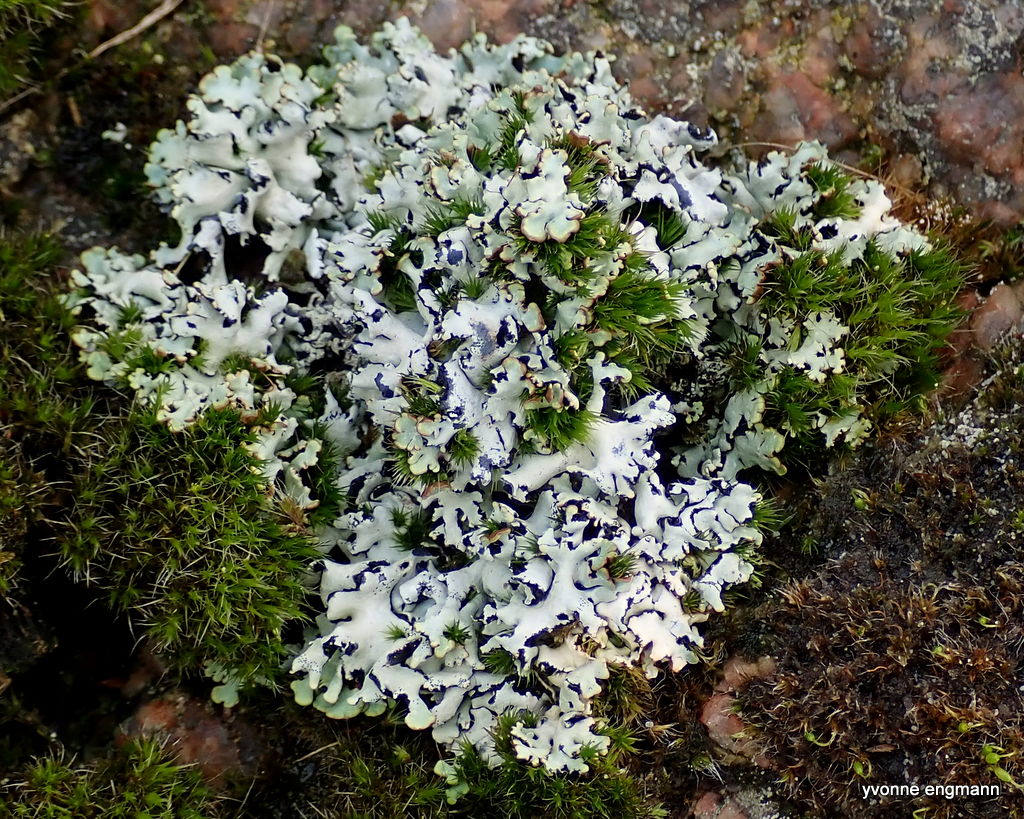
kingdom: Fungi
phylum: Ascomycota
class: Lecanoromycetes
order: Lecanorales
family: Parmeliaceae
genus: Hypogymnia
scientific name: Hypogymnia physodes
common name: almindelig kvistlav
